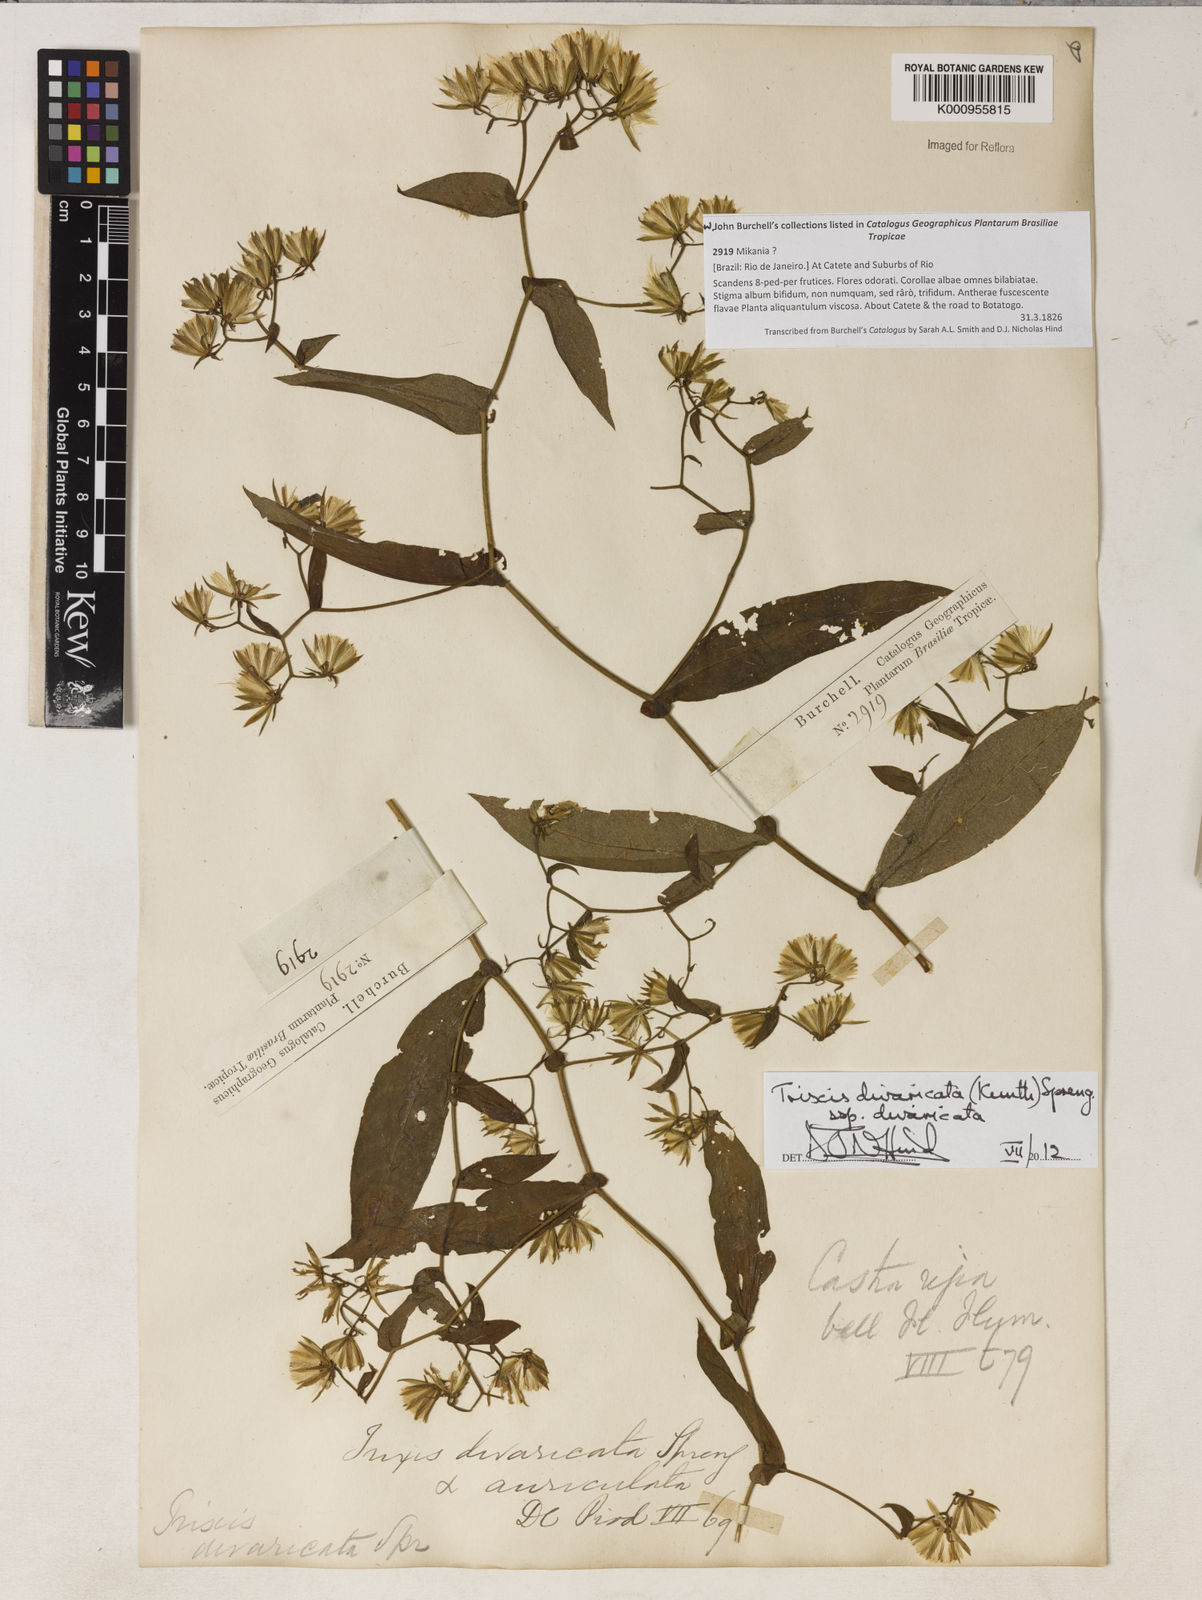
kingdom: Plantae
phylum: Tracheophyta
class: Magnoliopsida
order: Asterales
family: Asteraceae
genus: Trixis
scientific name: Trixis divaricata
